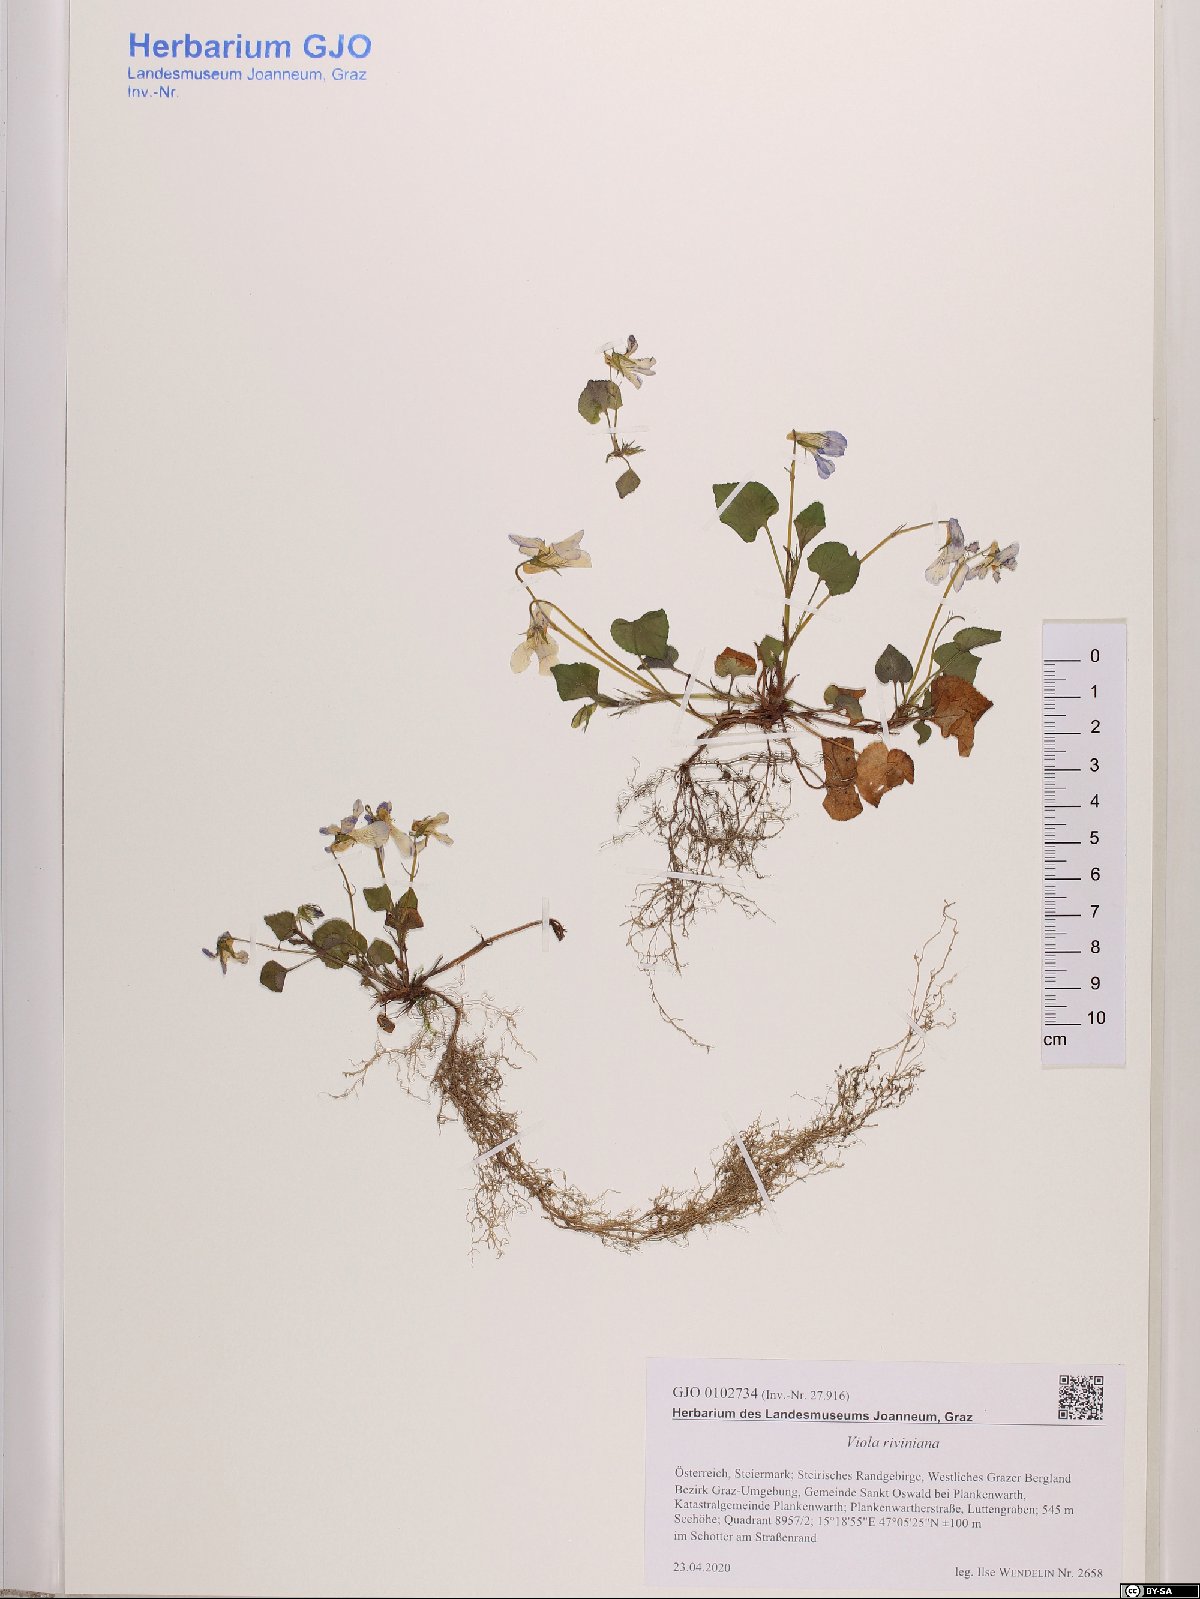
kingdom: Plantae
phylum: Tracheophyta
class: Magnoliopsida
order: Malpighiales
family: Violaceae
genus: Viola
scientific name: Viola riviniana
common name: Common dog-violet
